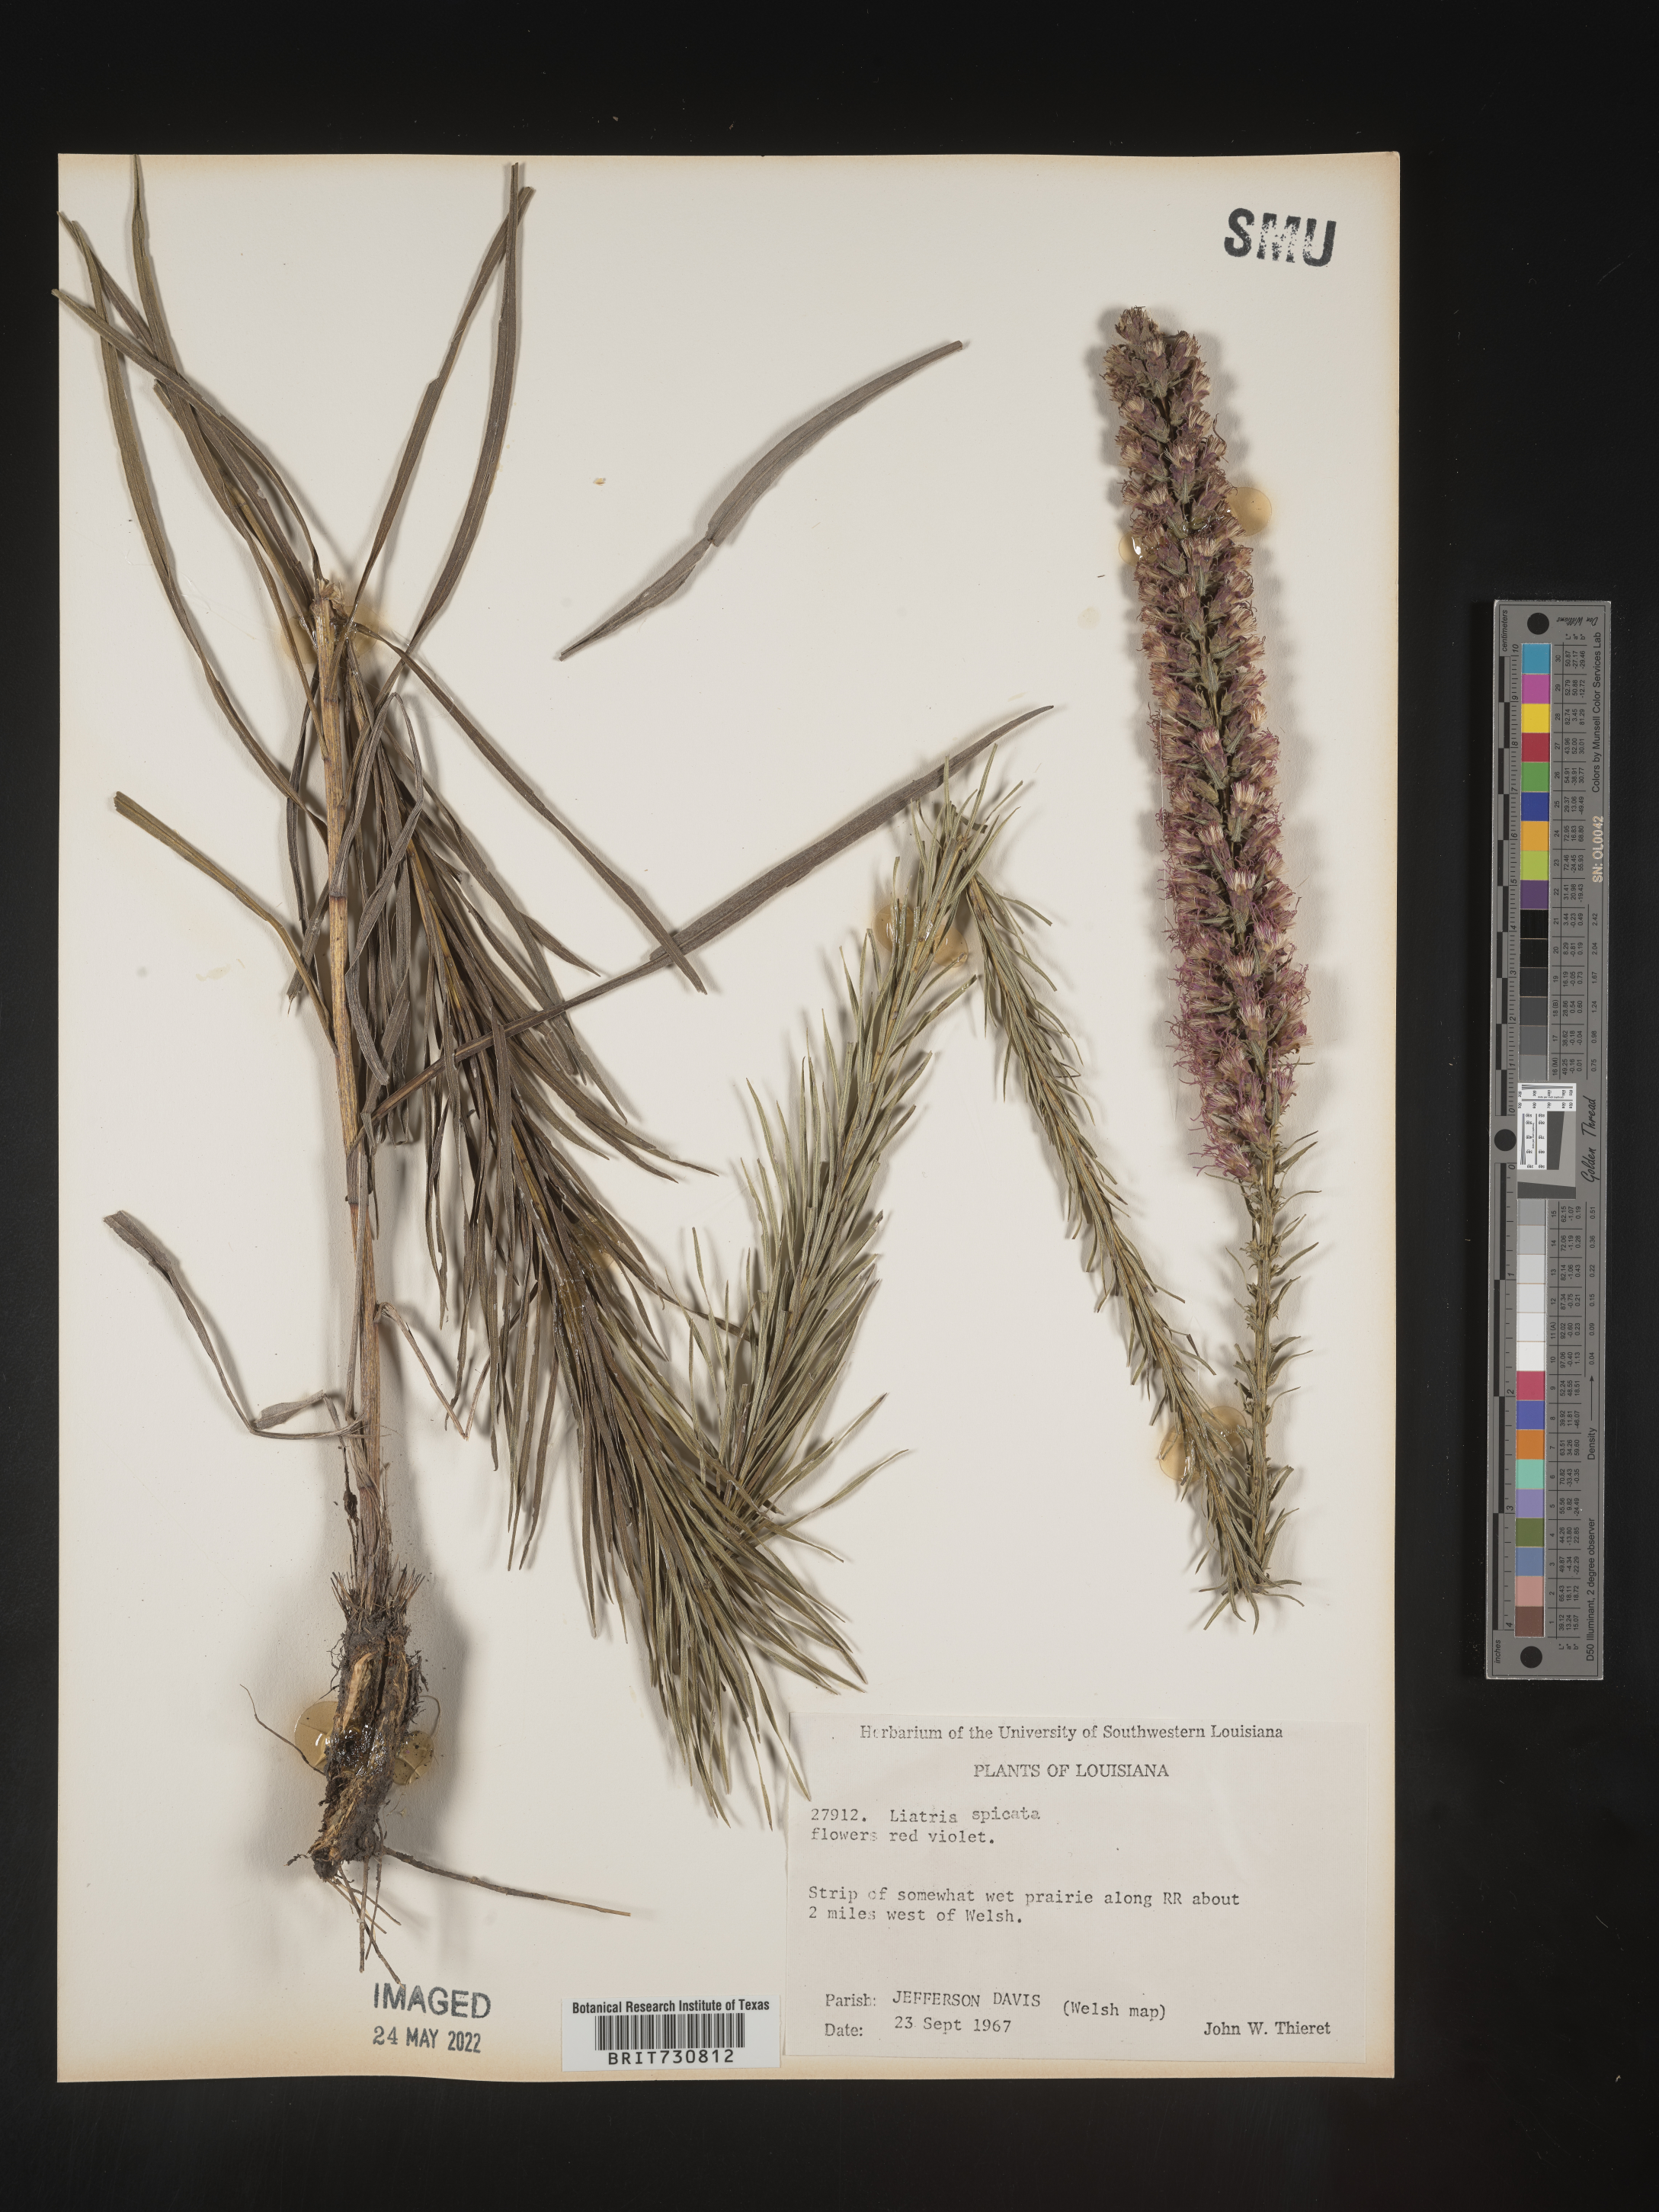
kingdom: Plantae
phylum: Tracheophyta
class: Magnoliopsida
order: Asterales
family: Asteraceae
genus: Liatris
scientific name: Liatris pycnostachya
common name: Cattail gayfeather
